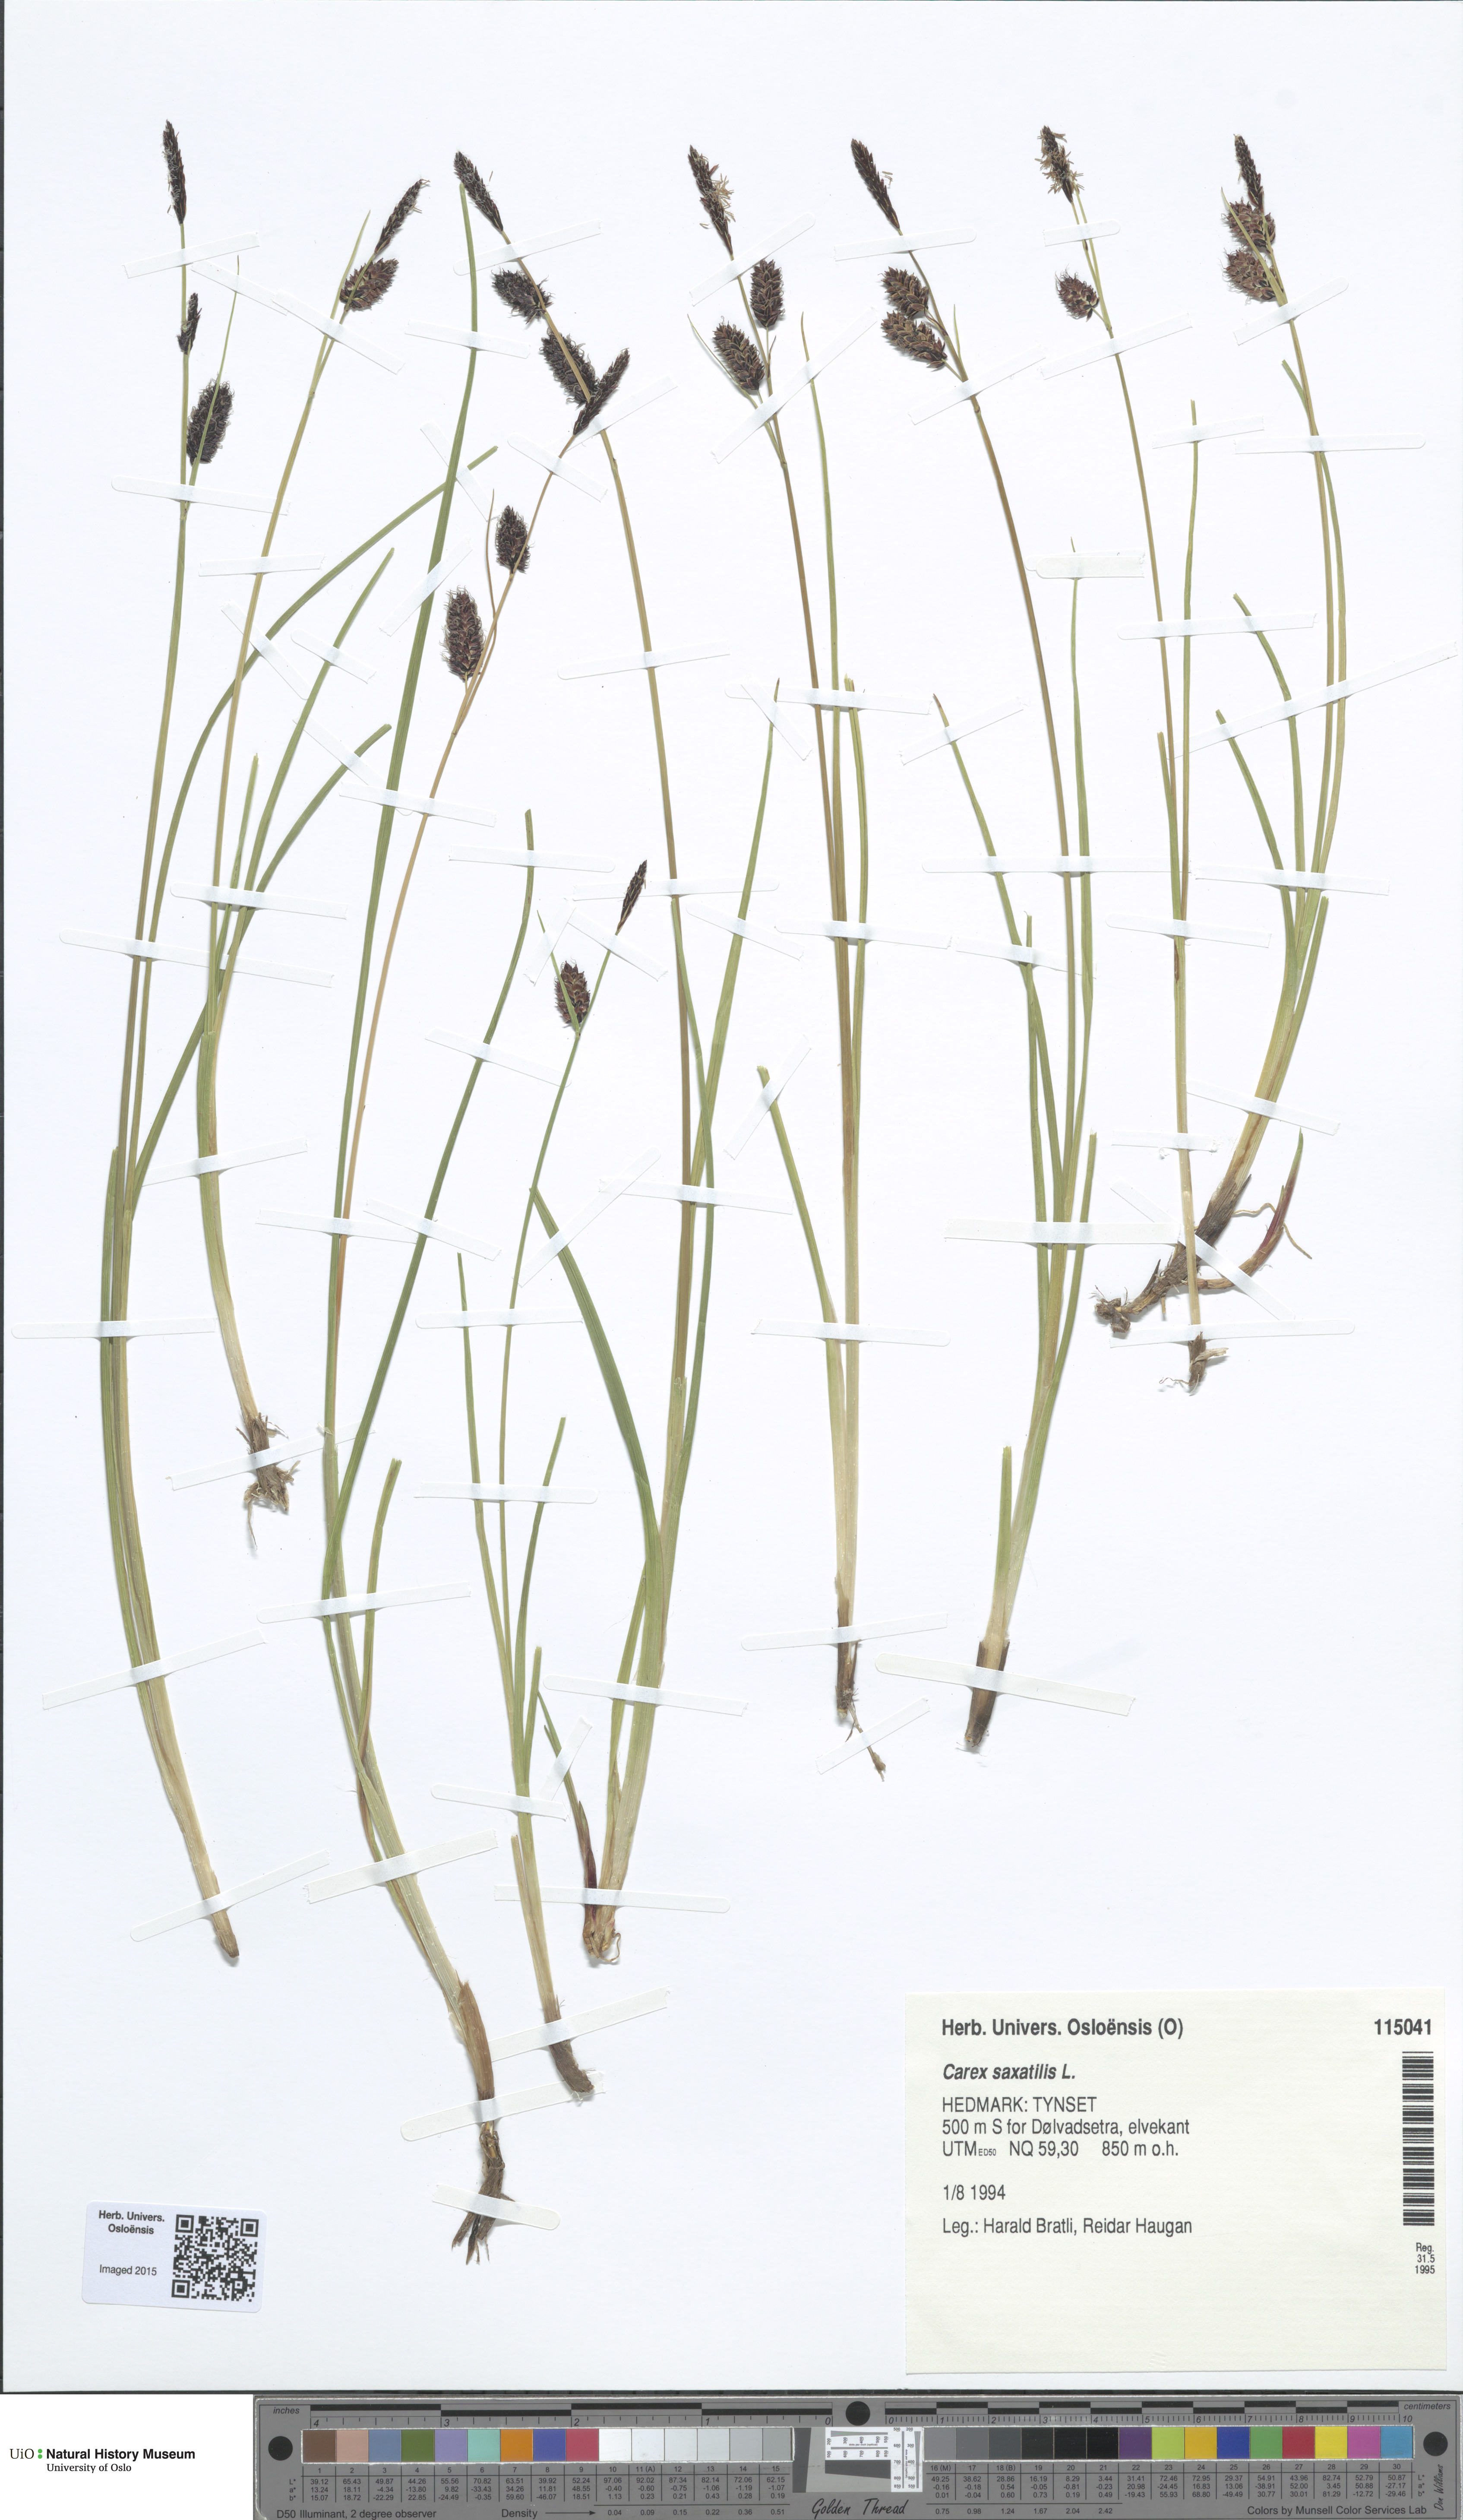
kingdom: Plantae
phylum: Tracheophyta
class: Liliopsida
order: Poales
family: Cyperaceae
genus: Carex
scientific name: Carex saxatilis
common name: Russet sedge
